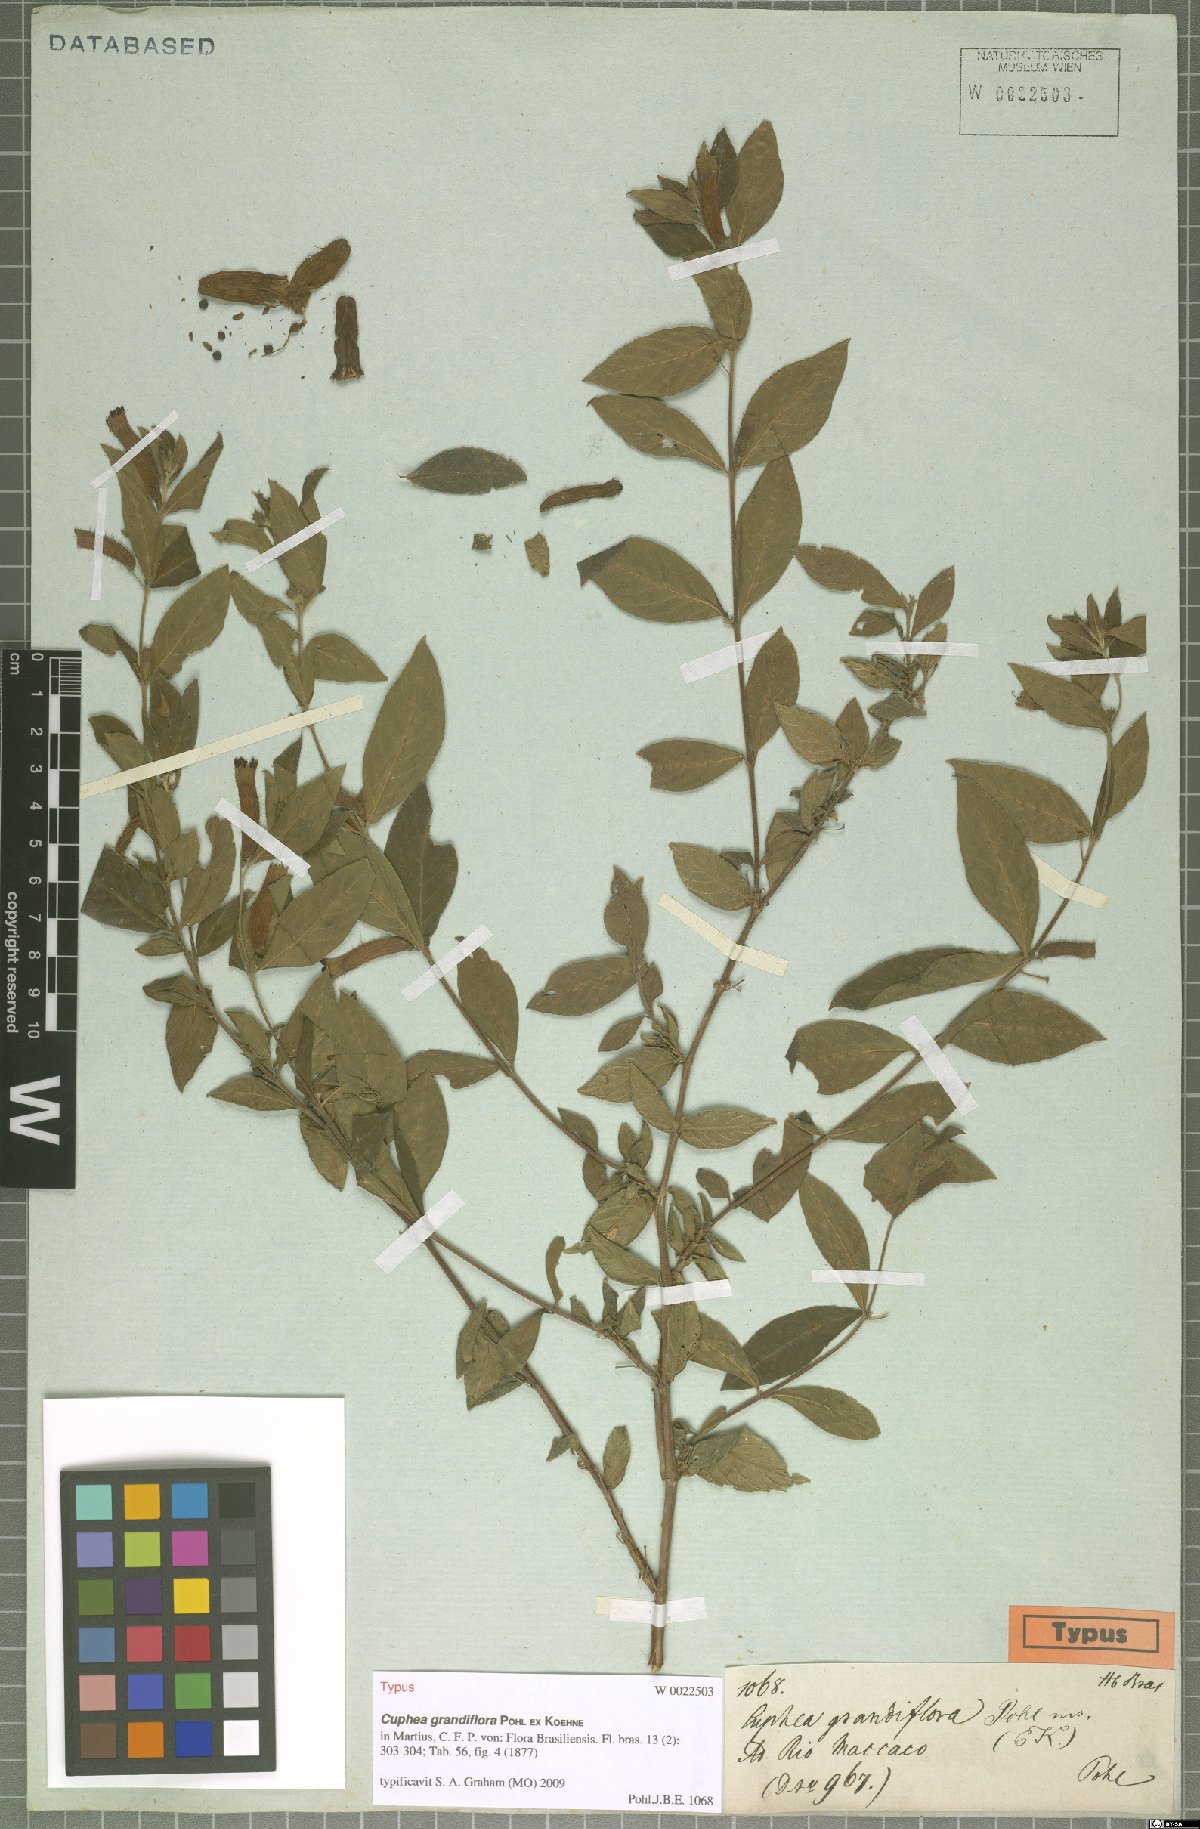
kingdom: Plantae
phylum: Tracheophyta
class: Magnoliopsida
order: Myrtales
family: Lythraceae
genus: Cuphea
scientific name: Cuphea grandiflora
